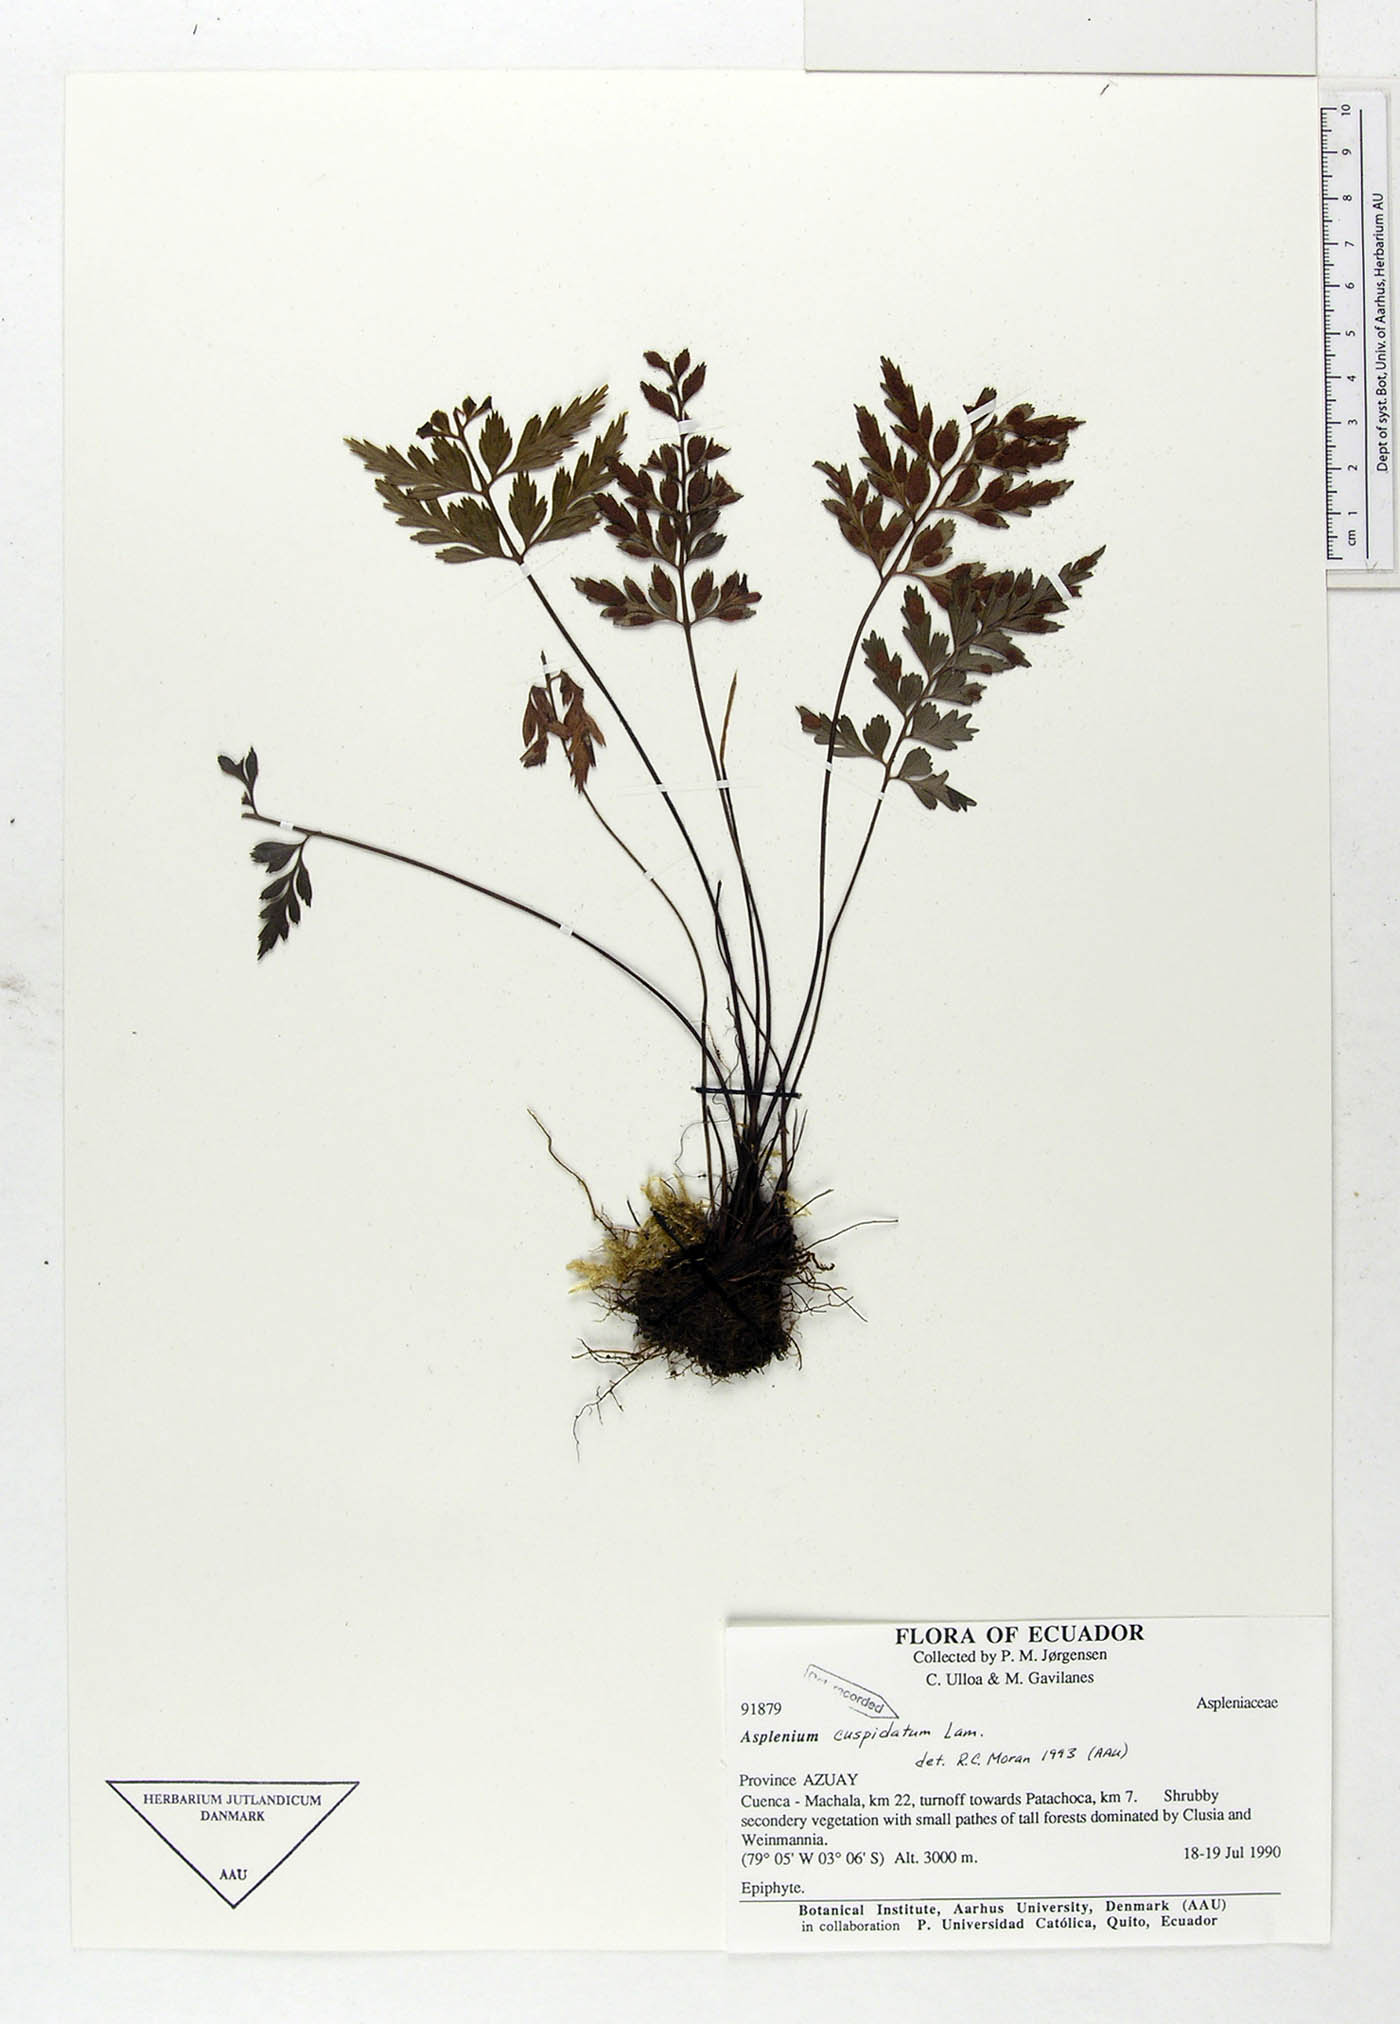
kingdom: Plantae
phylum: Tracheophyta
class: Polypodiopsida
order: Polypodiales
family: Aspleniaceae
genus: Asplenium
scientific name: Asplenium cuspidatum
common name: Eared spleenwort
